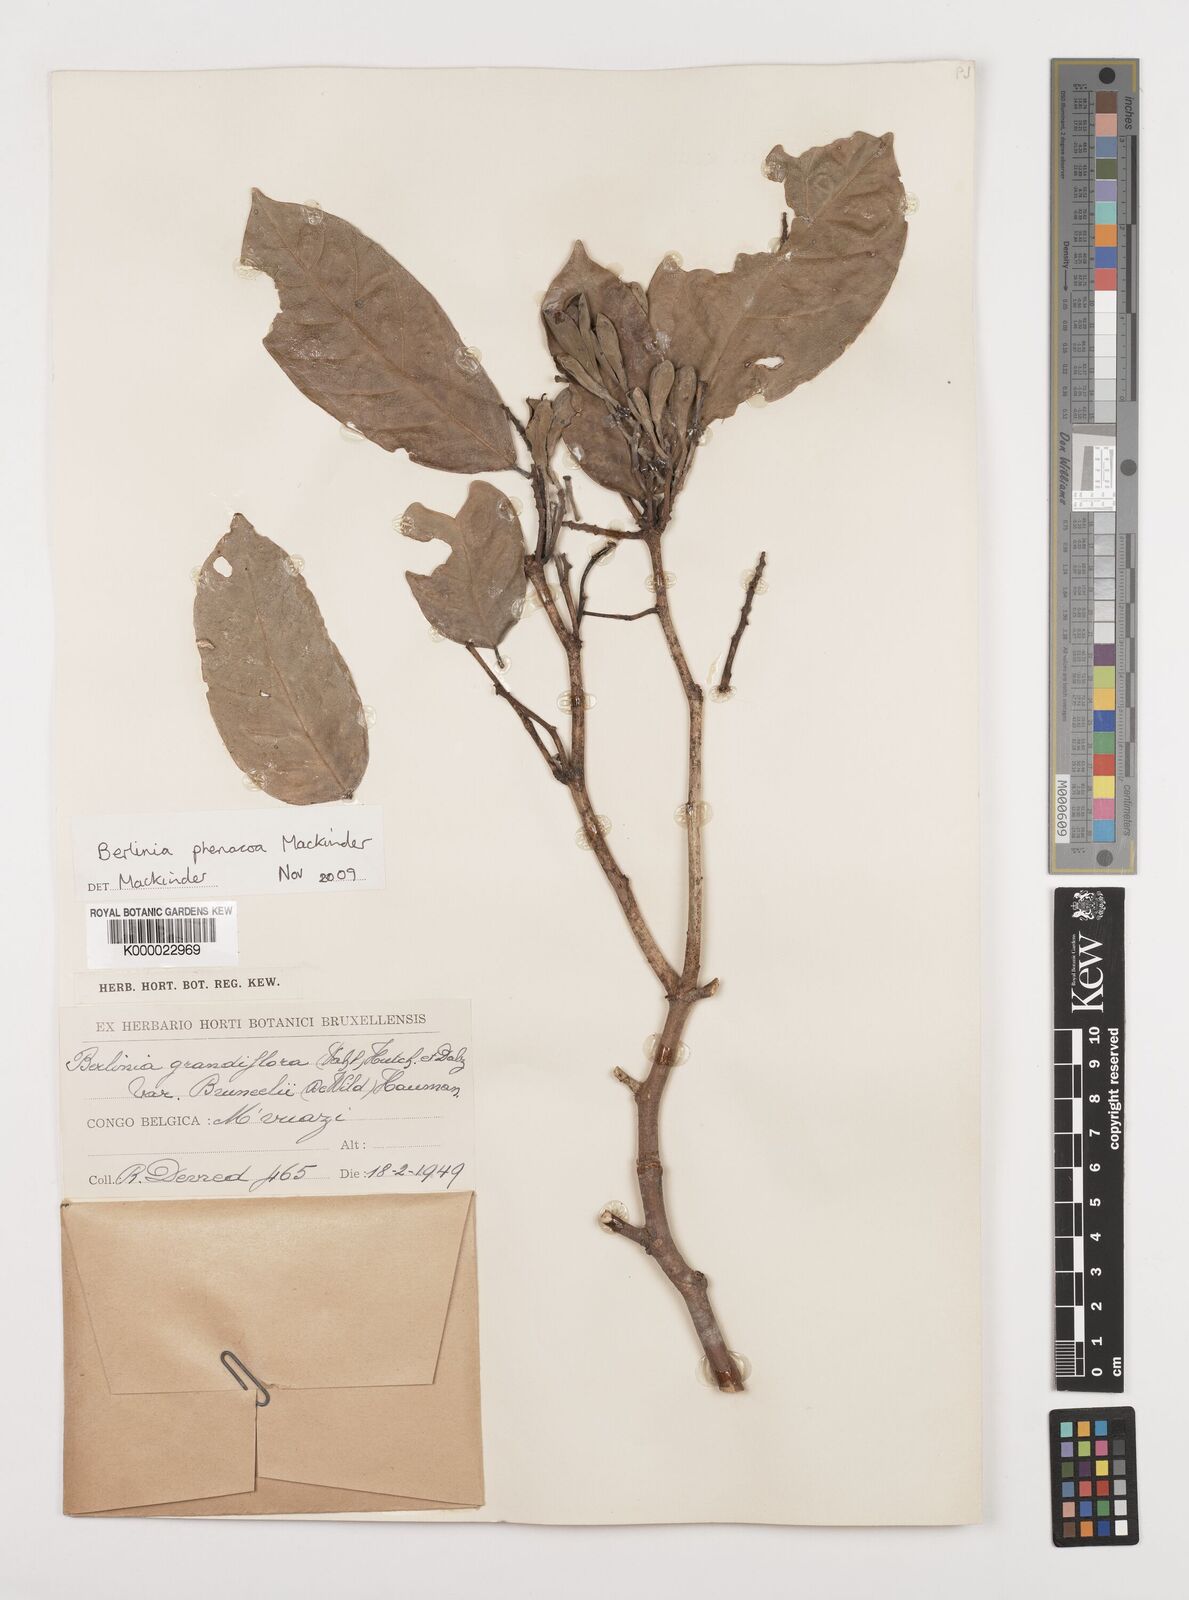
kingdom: Plantae
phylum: Tracheophyta
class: Magnoliopsida
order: Fabales
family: Fabaceae
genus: Berlinia
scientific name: Berlinia phenacoa
